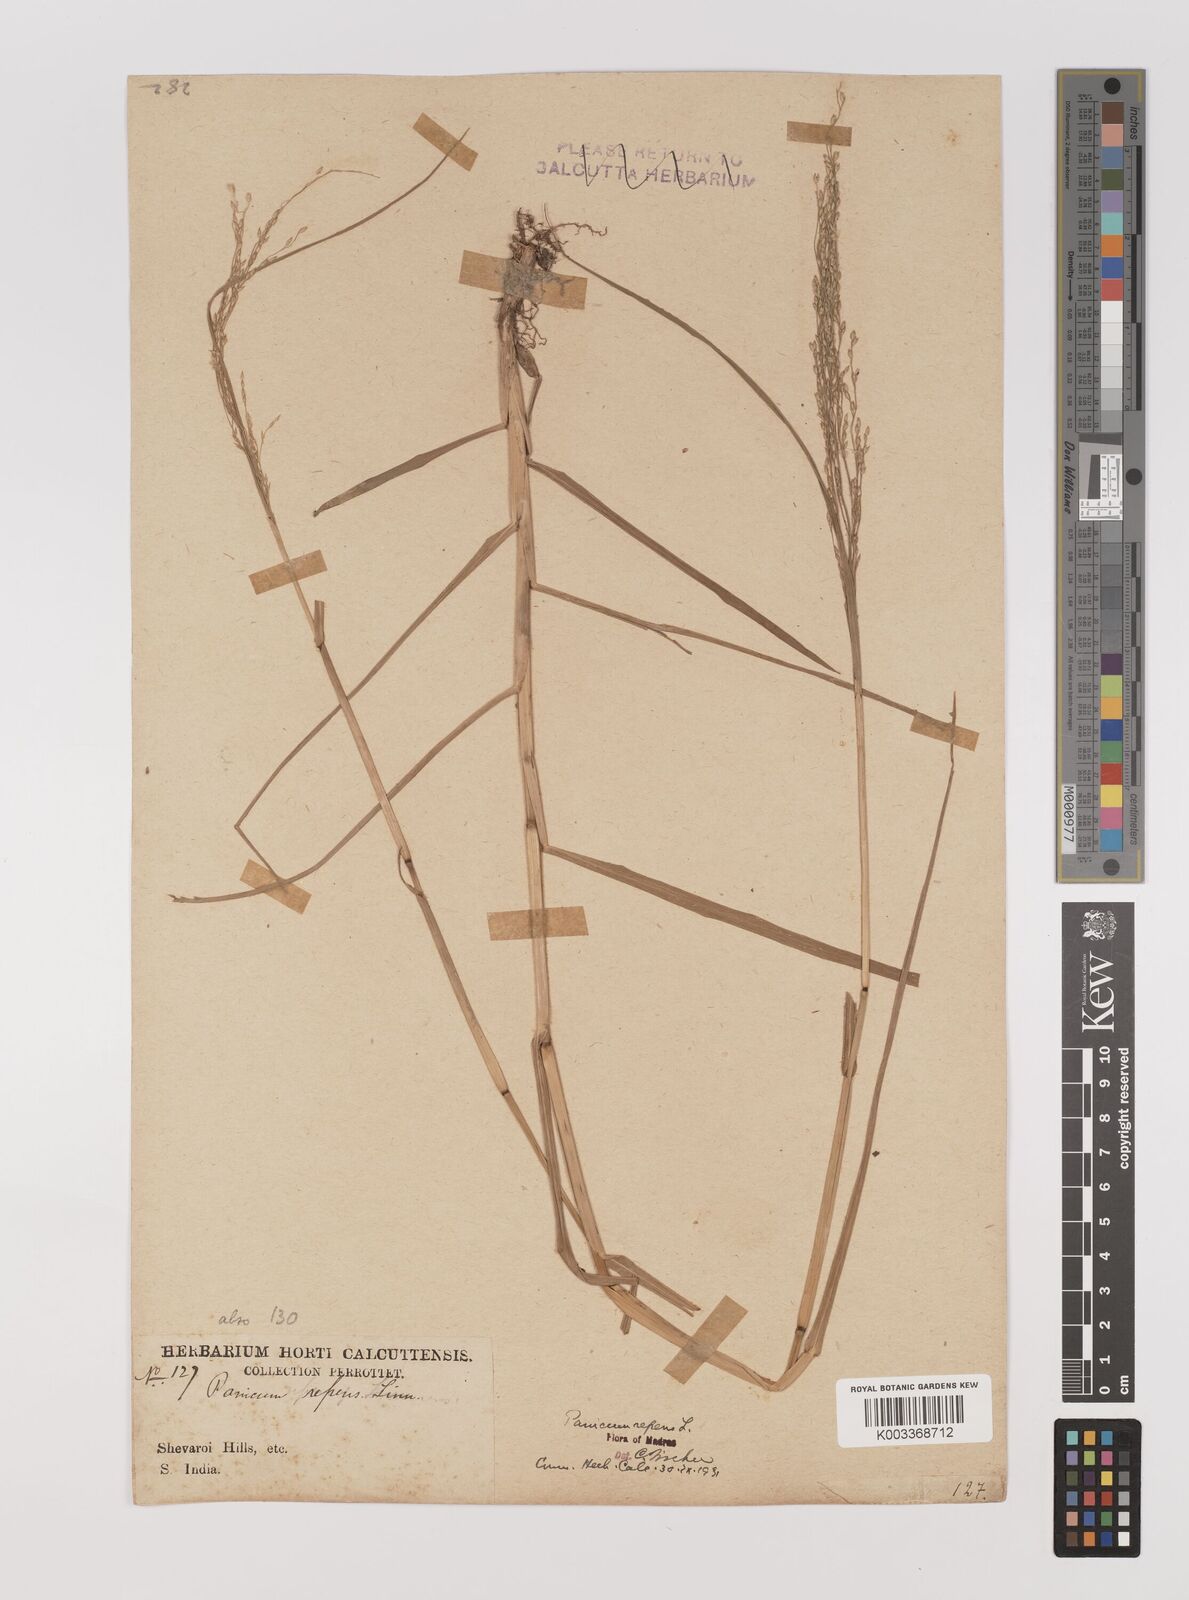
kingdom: Plantae
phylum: Tracheophyta
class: Liliopsida
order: Poales
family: Poaceae
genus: Panicum
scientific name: Panicum repens
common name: Torpedo grass
